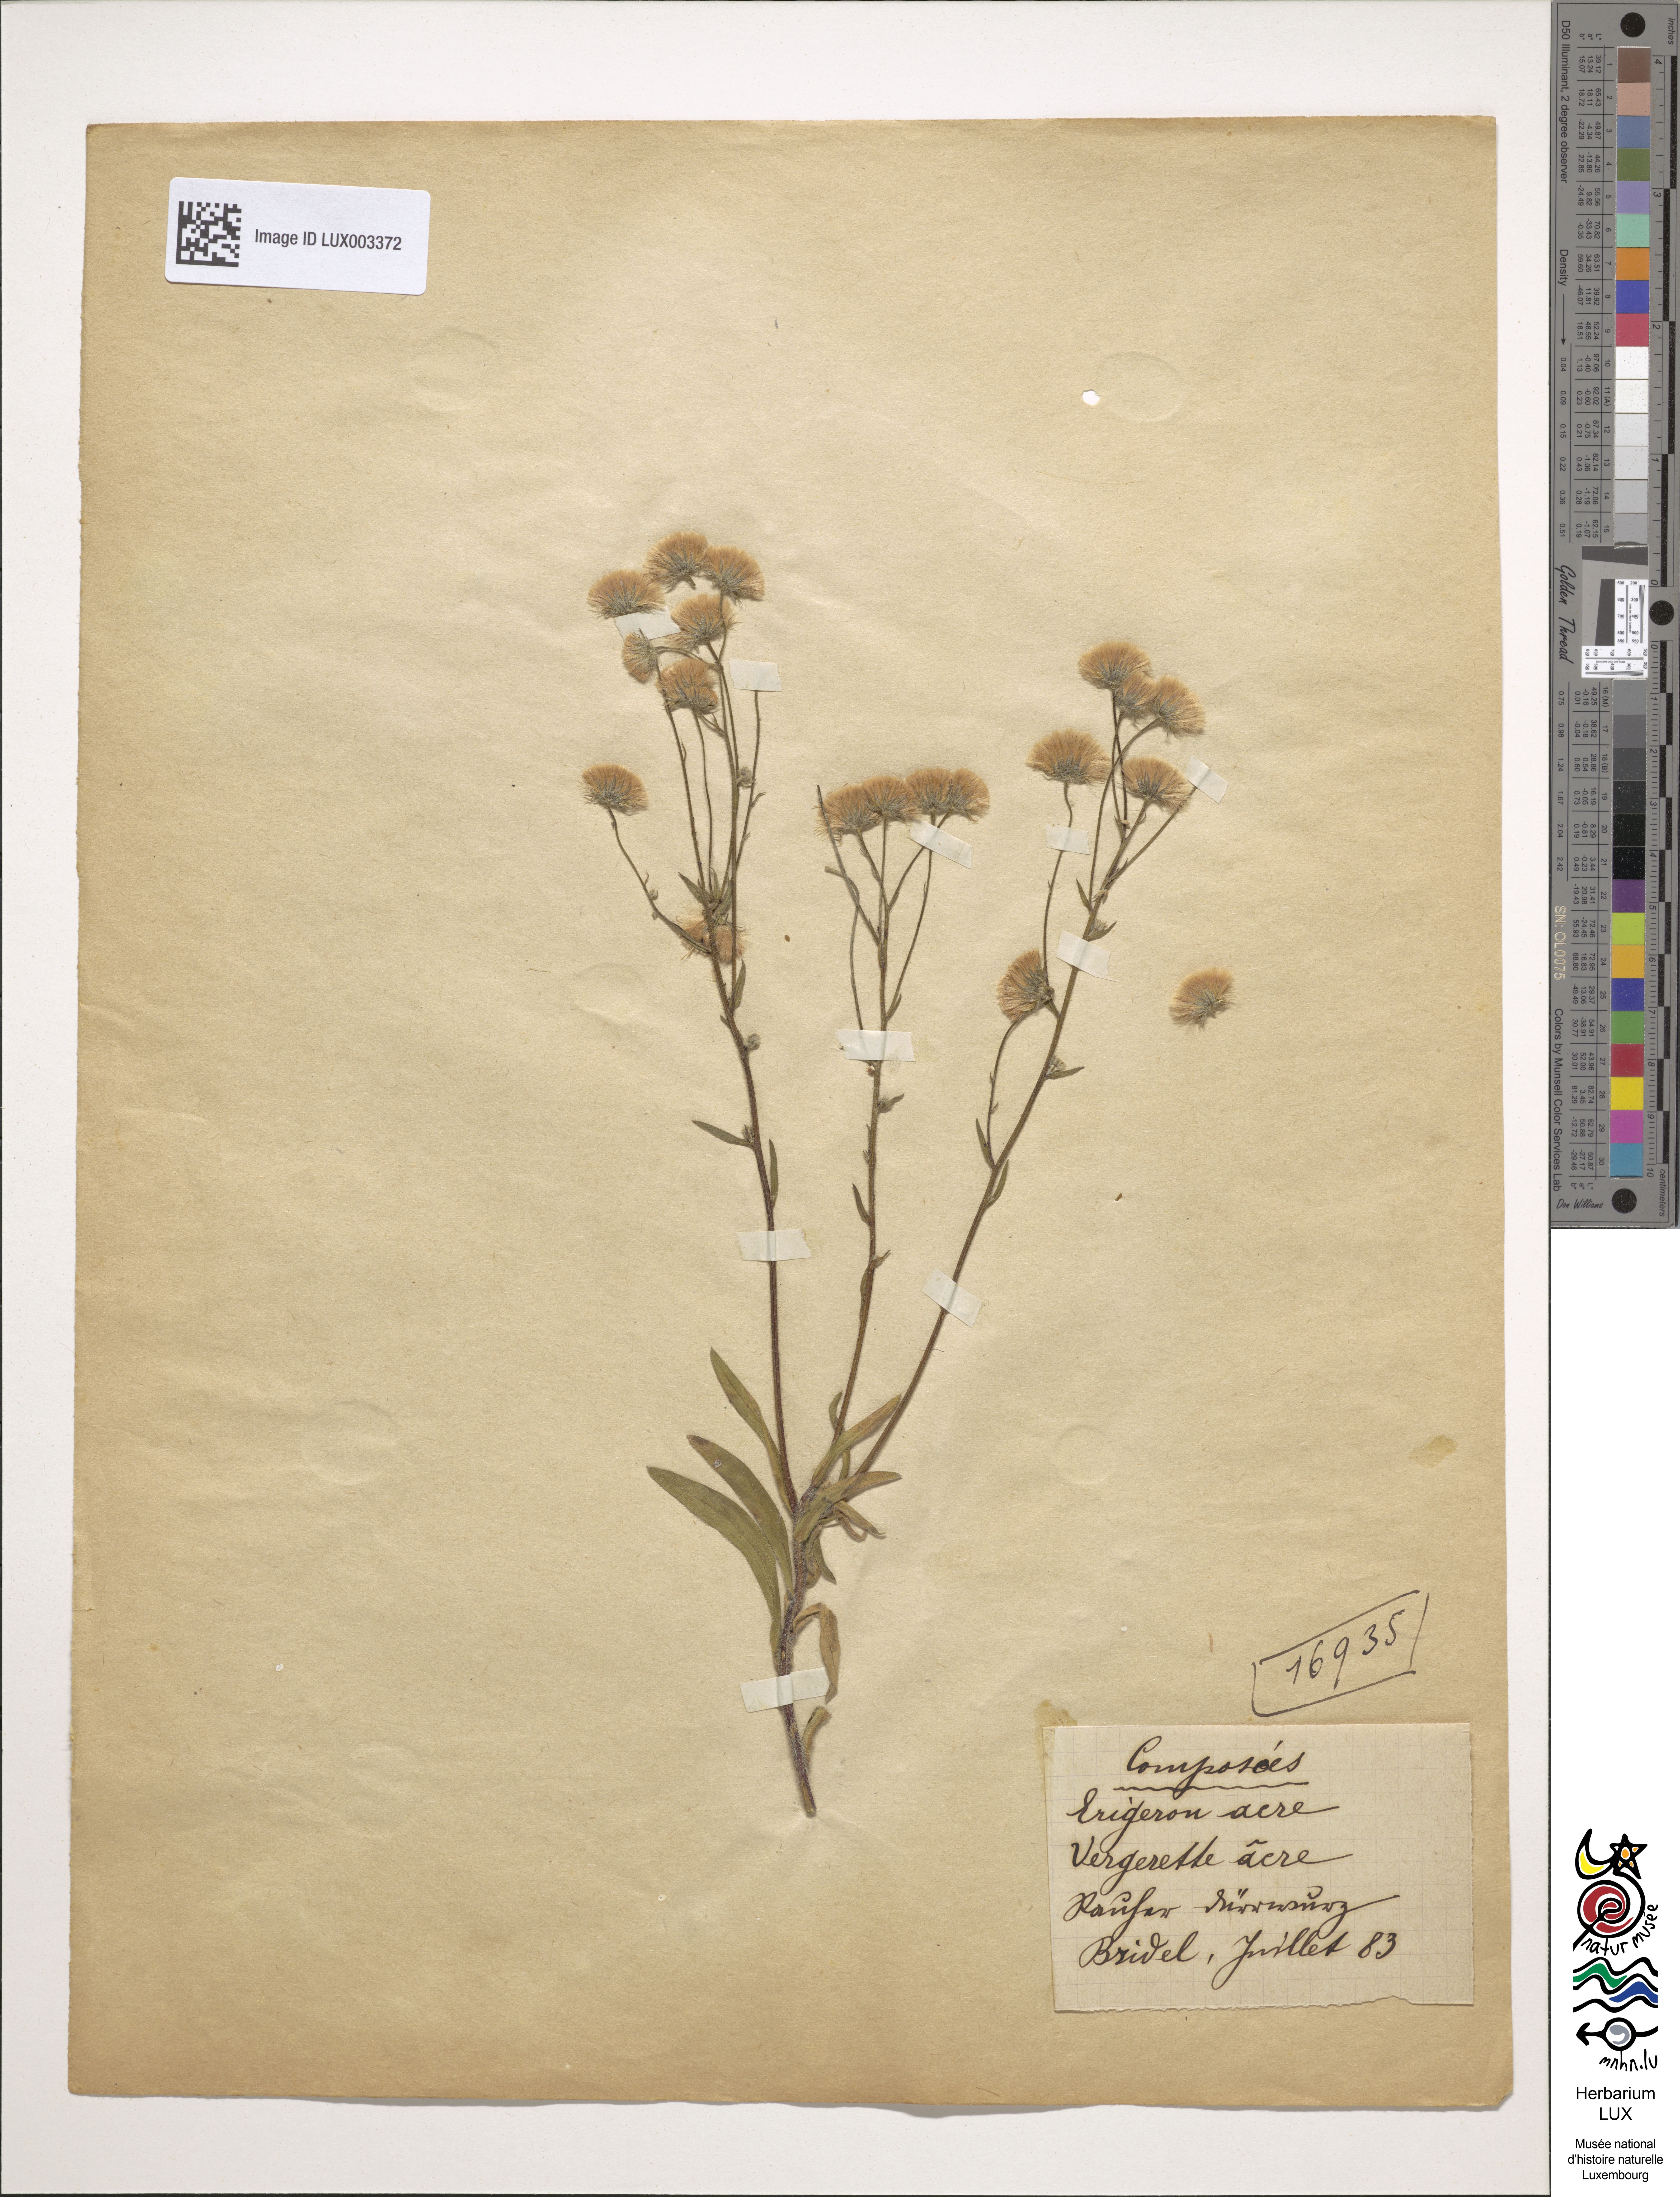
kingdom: Plantae
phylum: Tracheophyta
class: Magnoliopsida
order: Asterales
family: Asteraceae
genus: Erigeron
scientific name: Erigeron acer
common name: Blue fleabane
